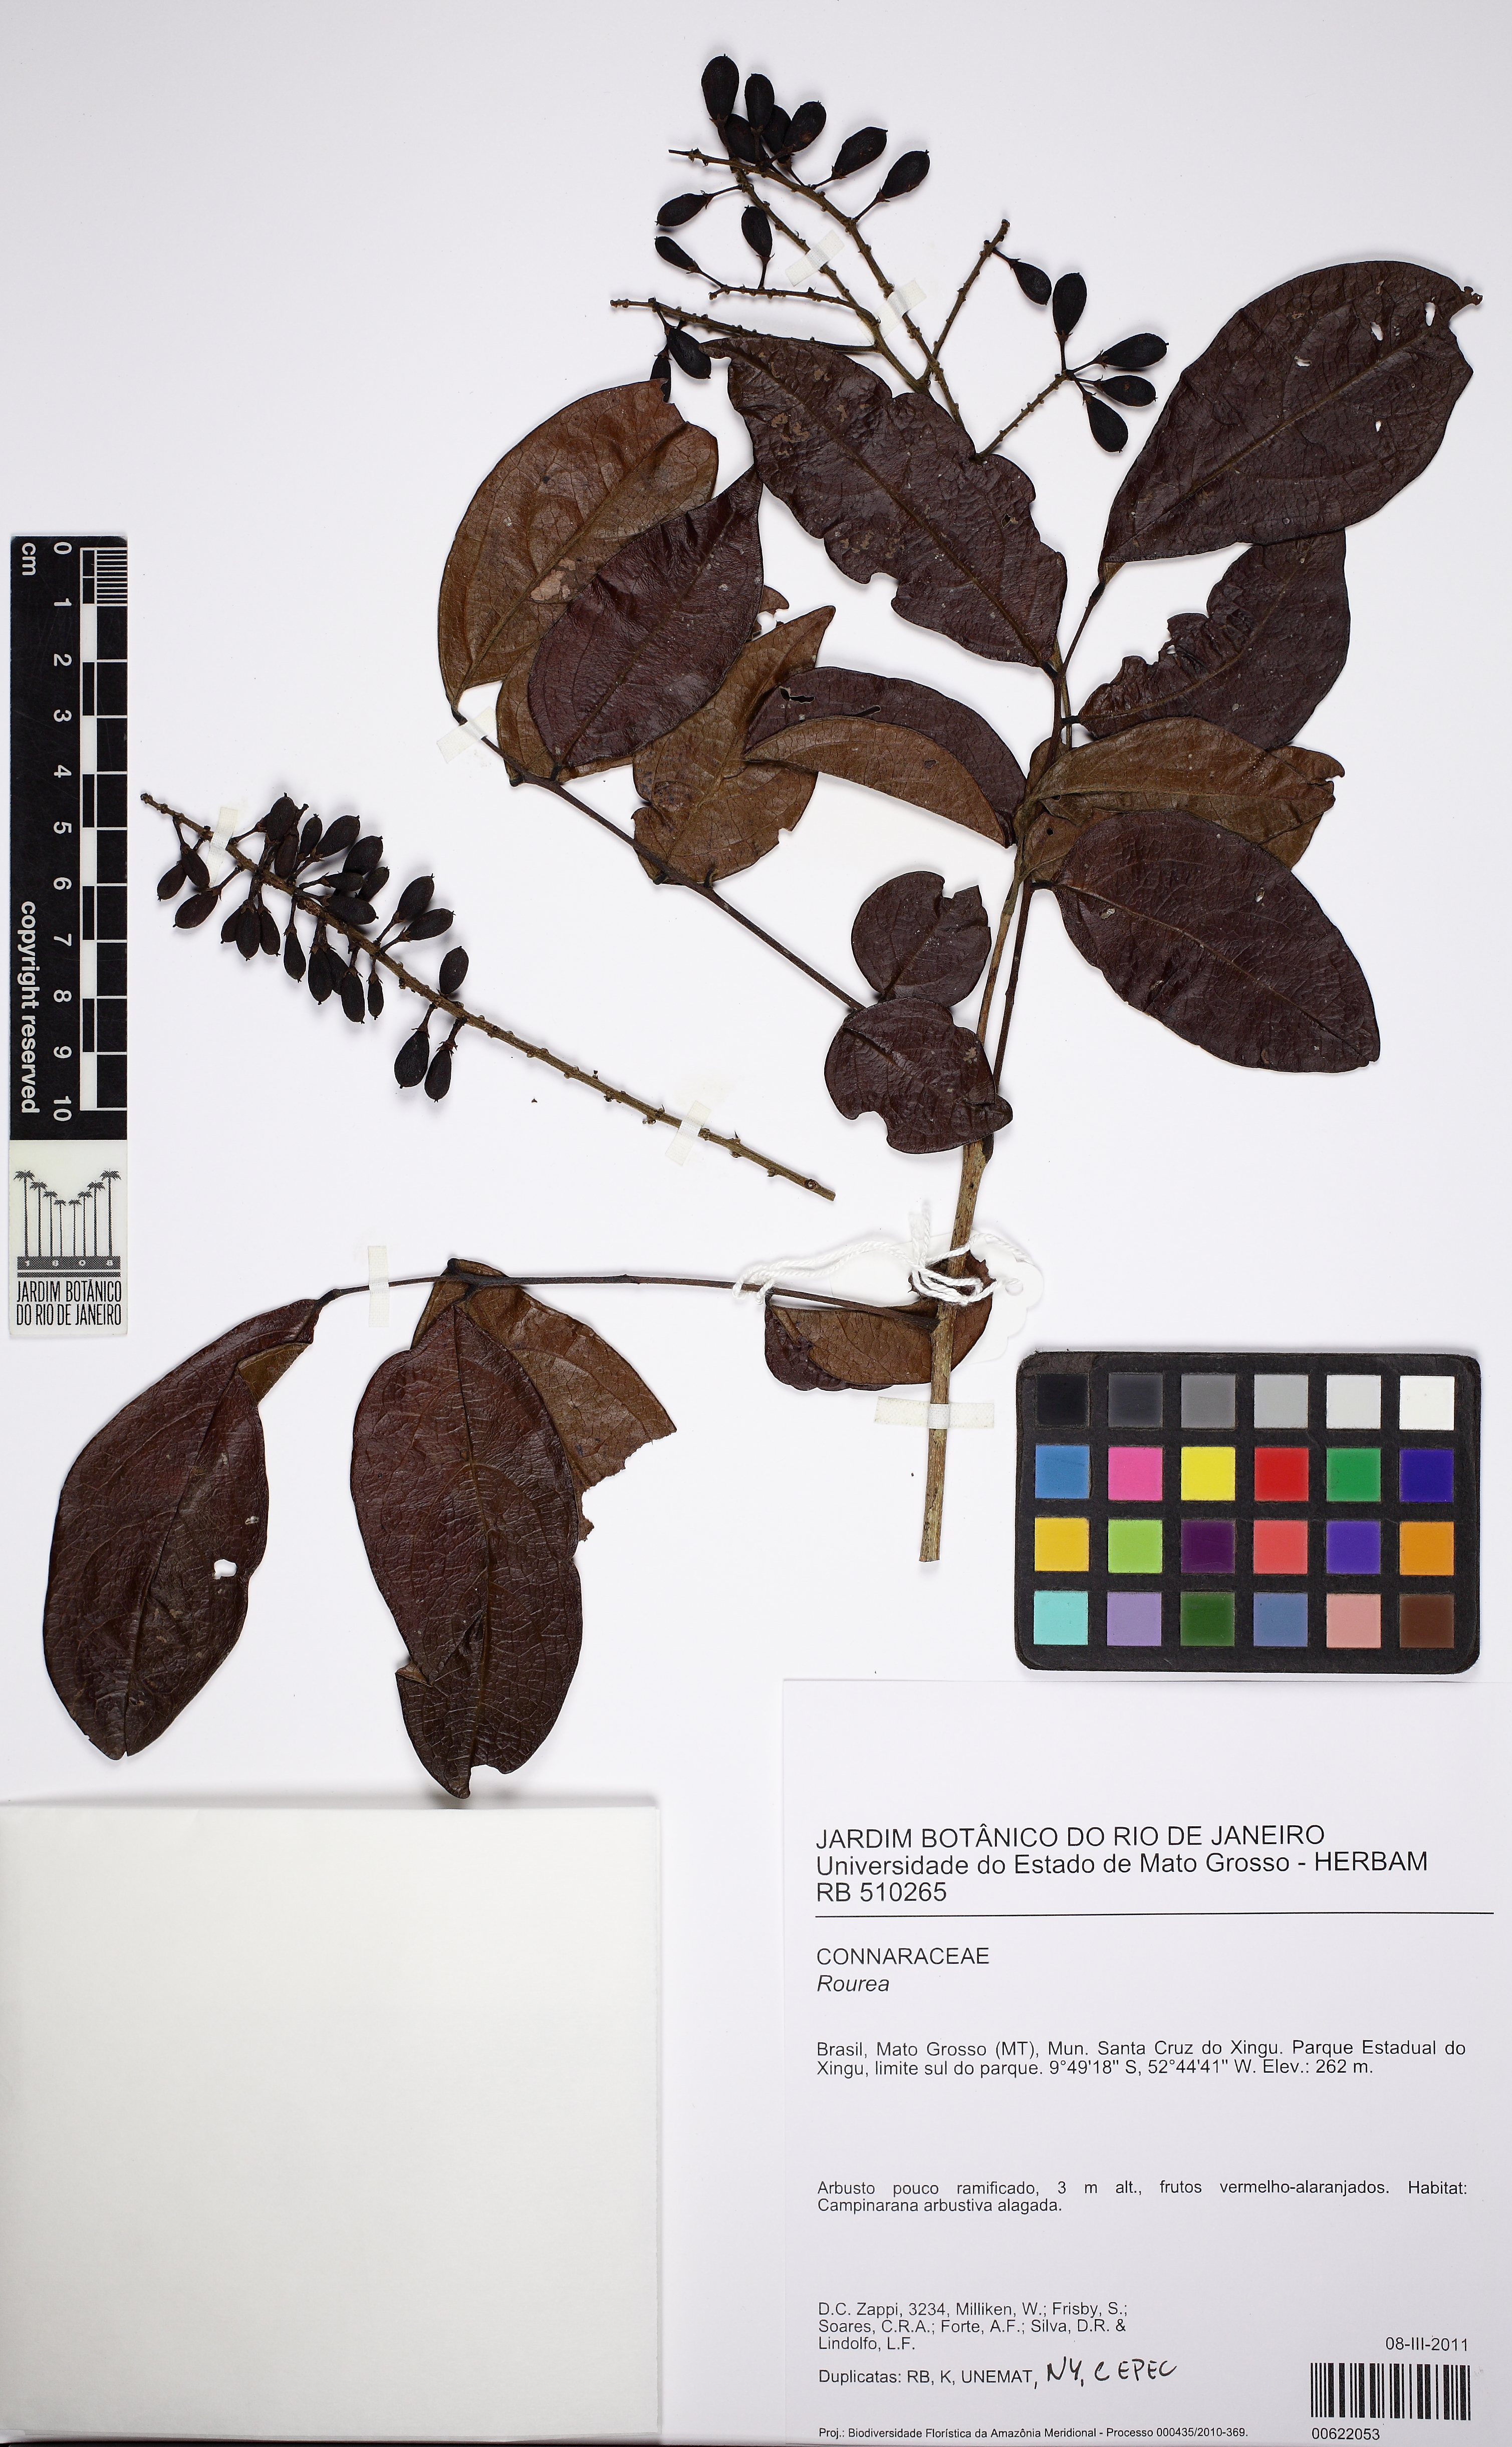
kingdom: Plantae
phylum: Tracheophyta
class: Magnoliopsida
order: Oxalidales
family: Connaraceae
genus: Rourea
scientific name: Rourea doniana
